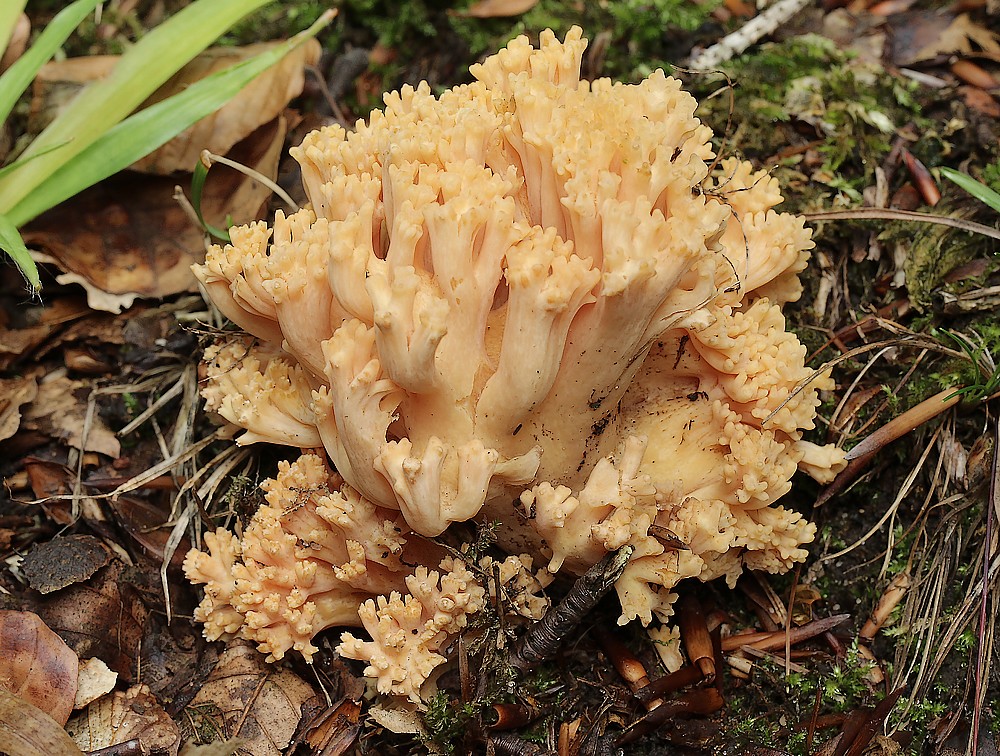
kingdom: Fungi
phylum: Basidiomycota
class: Agaricomycetes
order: Gomphales
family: Gomphaceae
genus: Ramaria
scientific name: Ramaria
